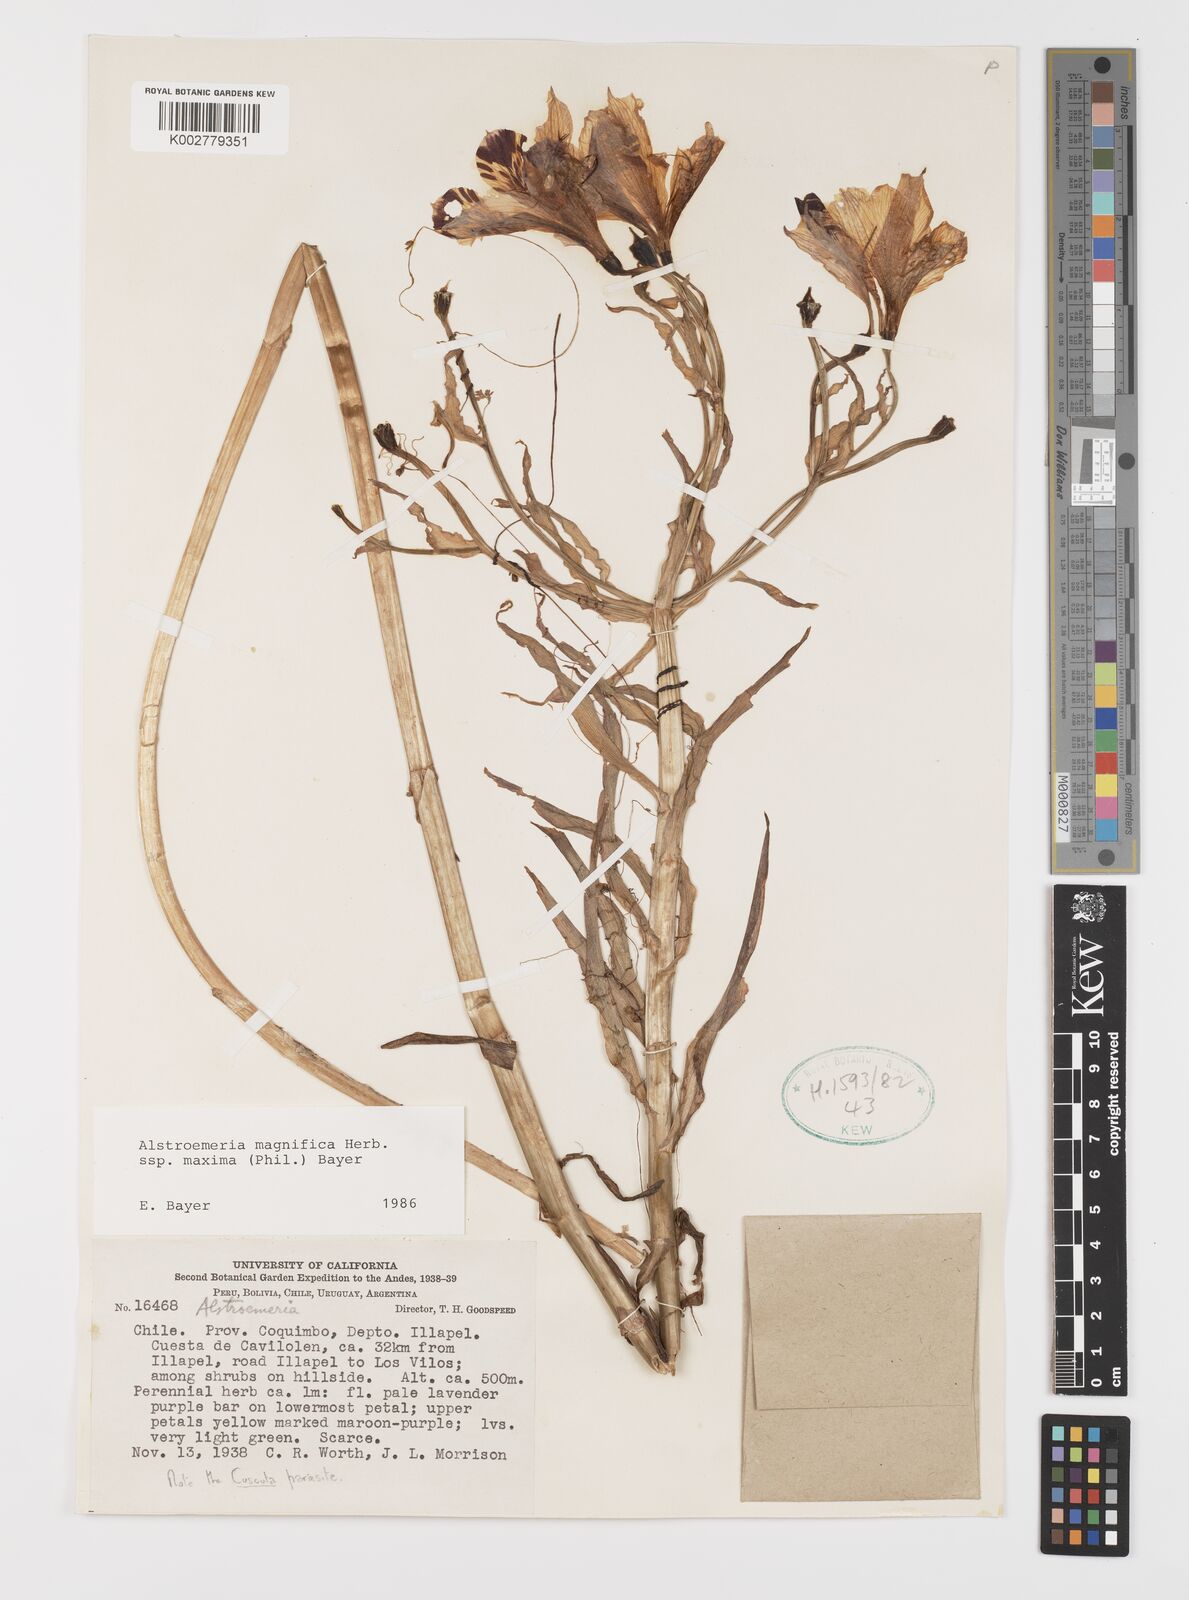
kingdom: Plantae
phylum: Tracheophyta
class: Liliopsida
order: Liliales
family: Alstroemeriaceae
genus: Alstroemeria
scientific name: Alstroemeria magnifica
